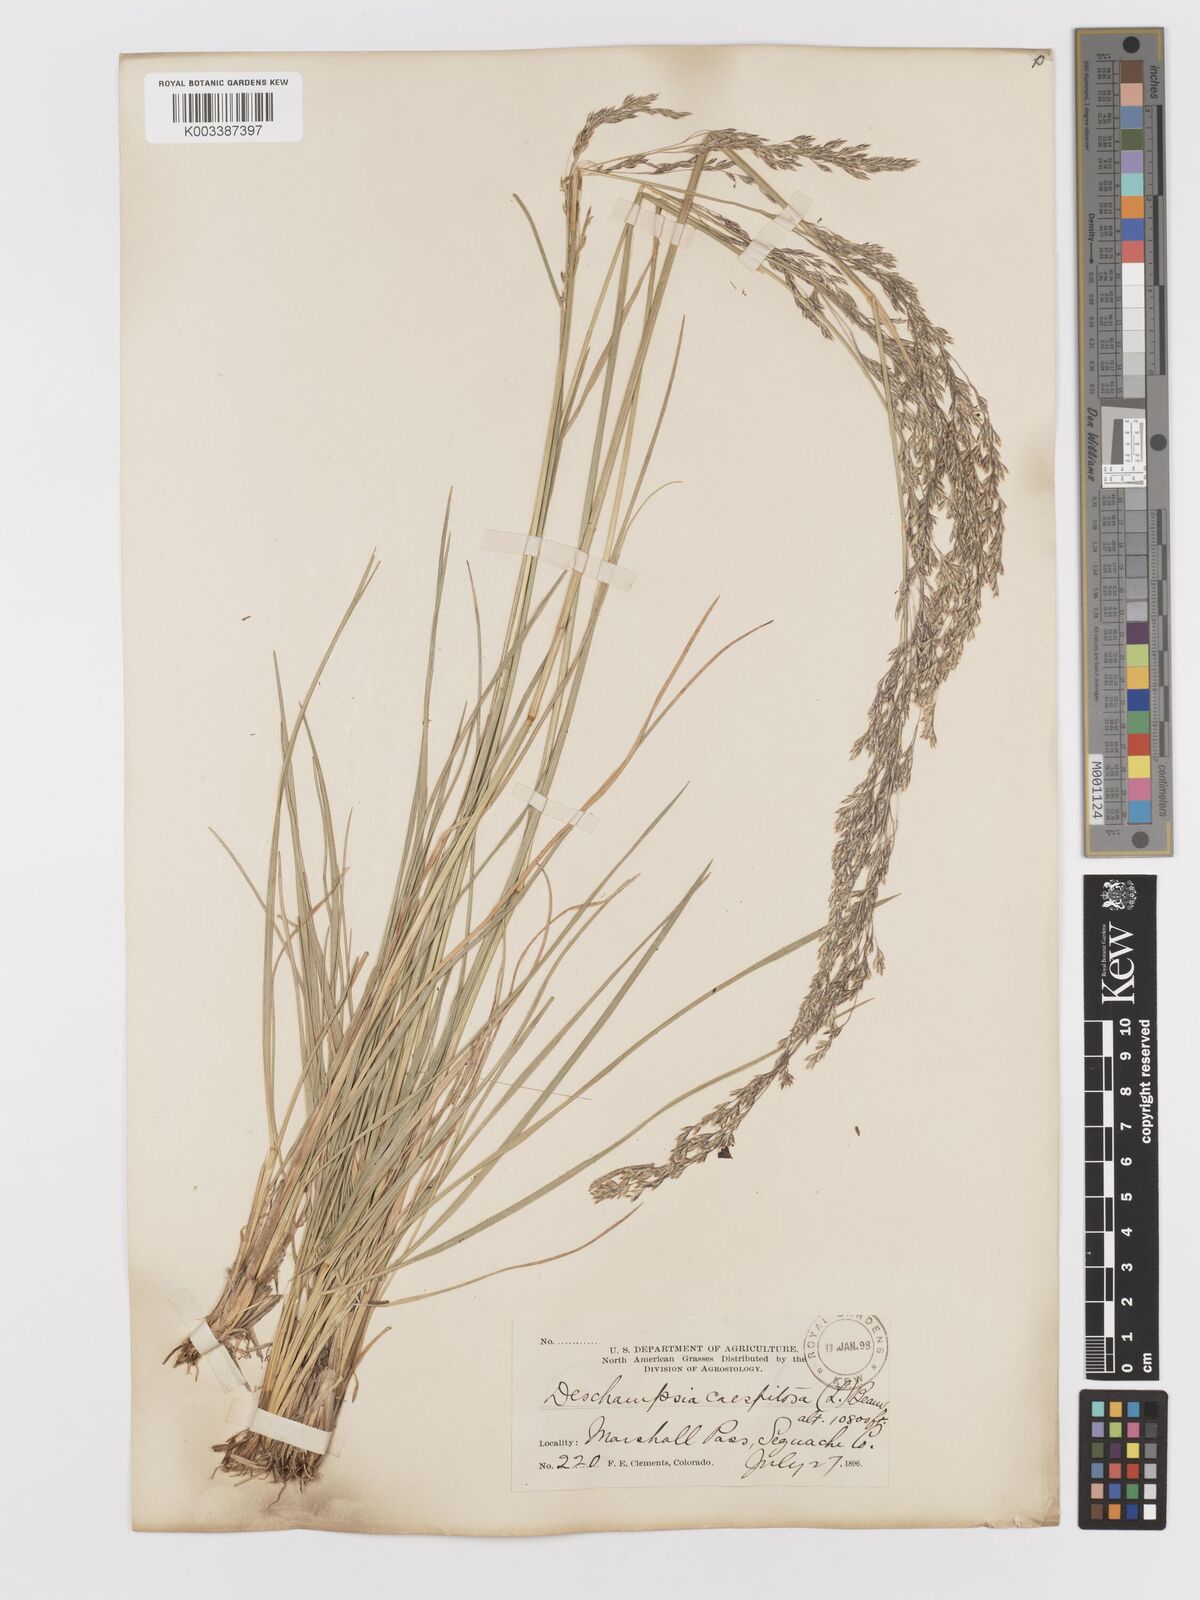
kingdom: Plantae
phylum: Tracheophyta
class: Liliopsida
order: Poales
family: Poaceae
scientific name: Poaceae
